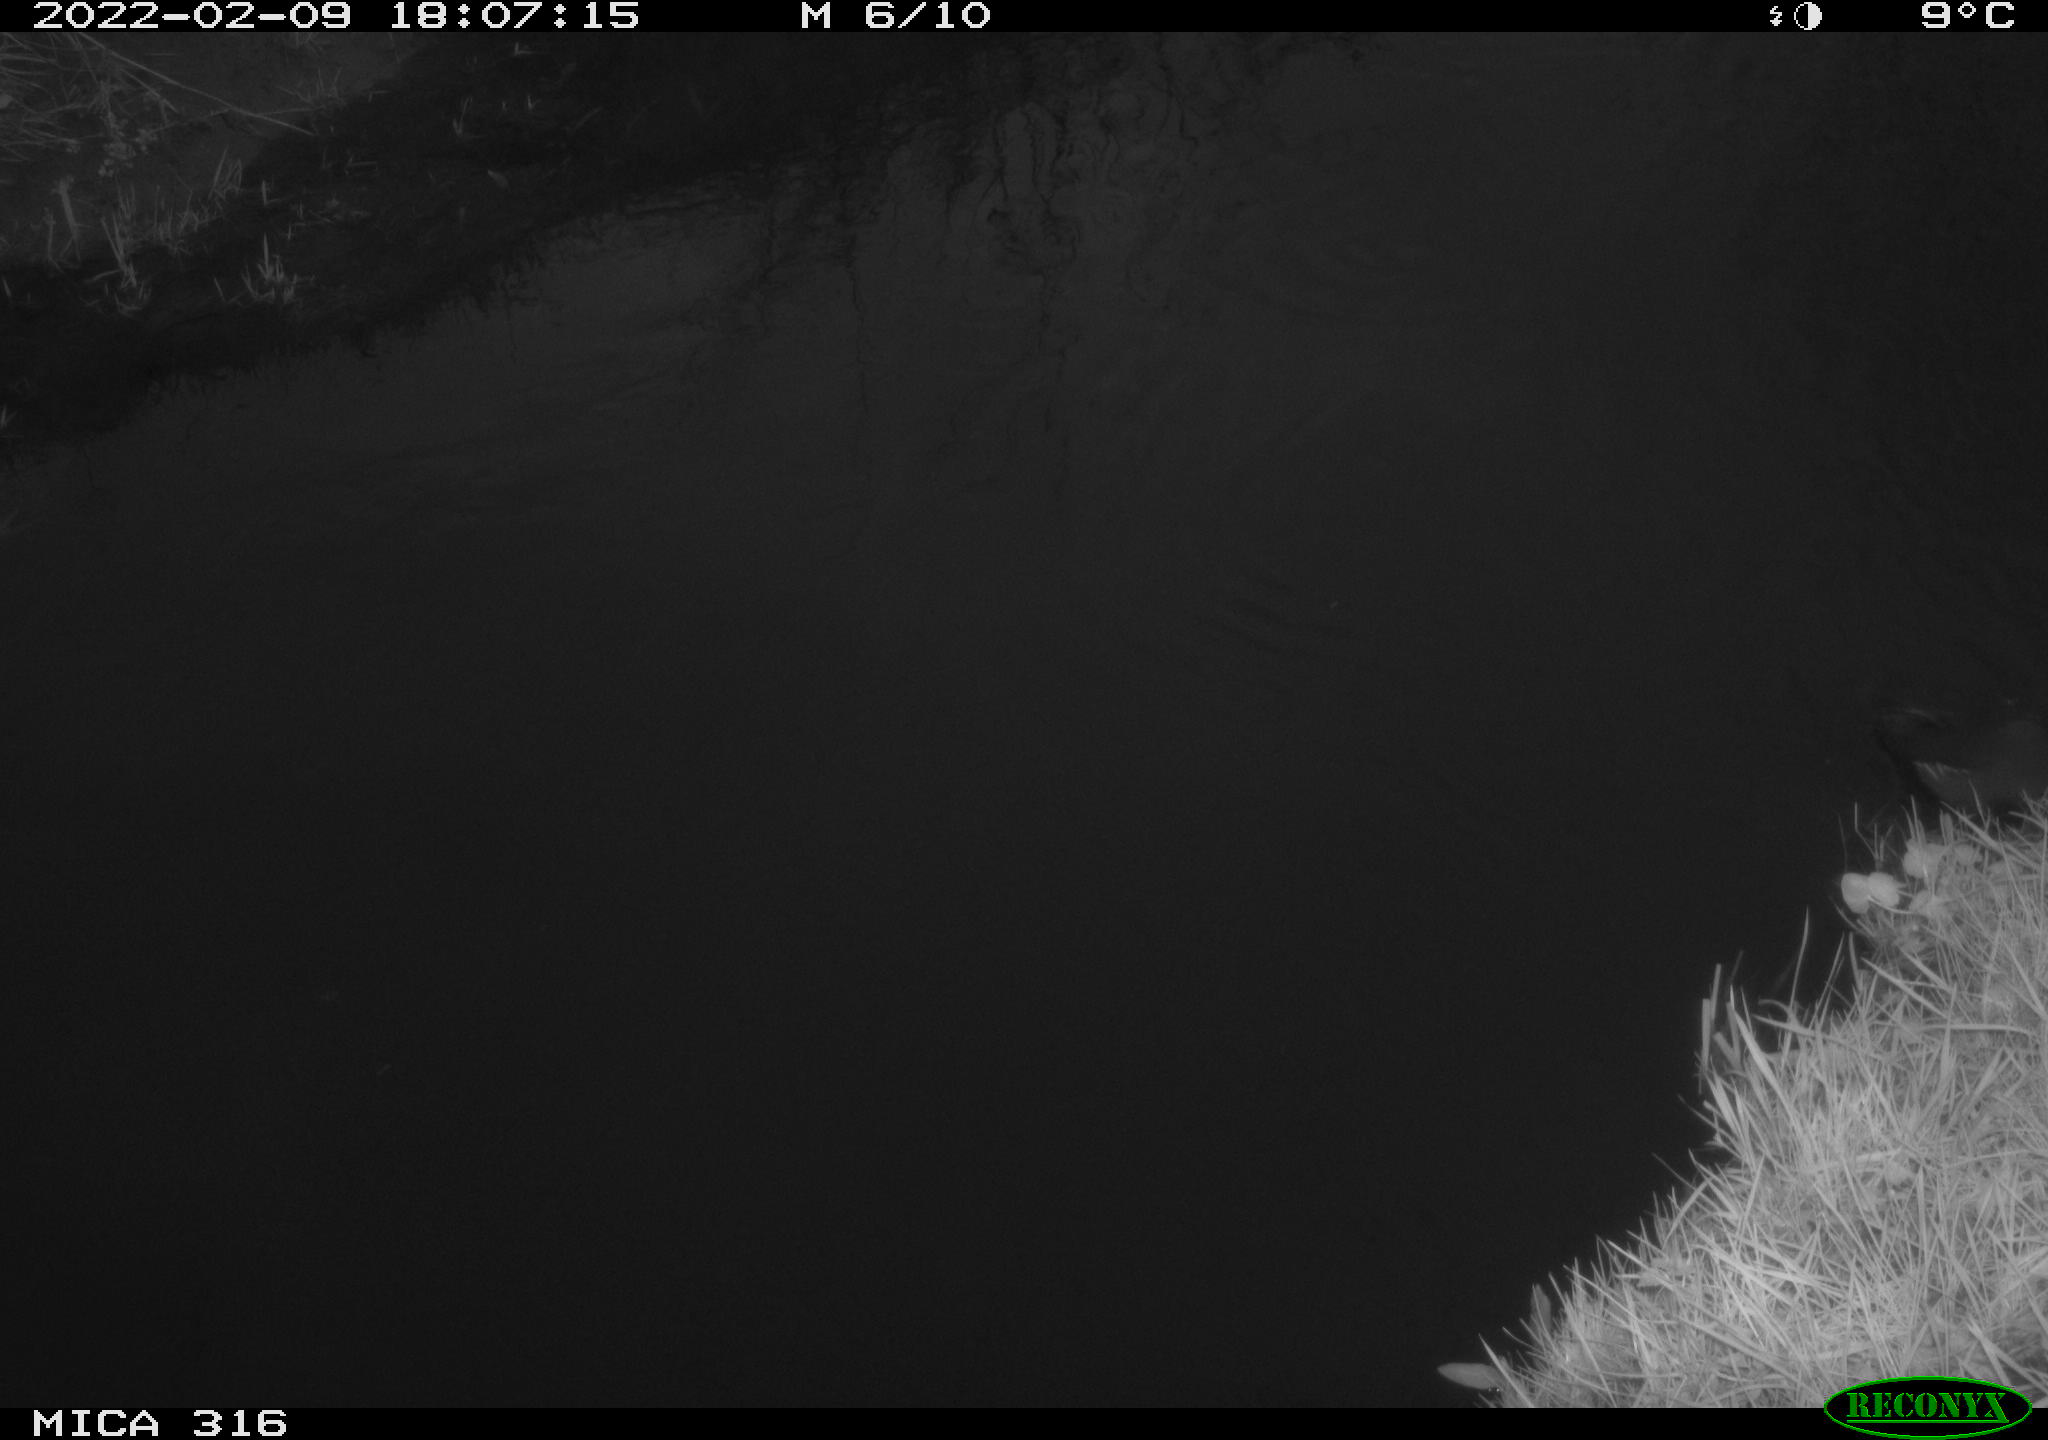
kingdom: Animalia
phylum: Chordata
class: Aves
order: Gruiformes
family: Rallidae
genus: Gallinula
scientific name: Gallinula chloropus
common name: Common moorhen
